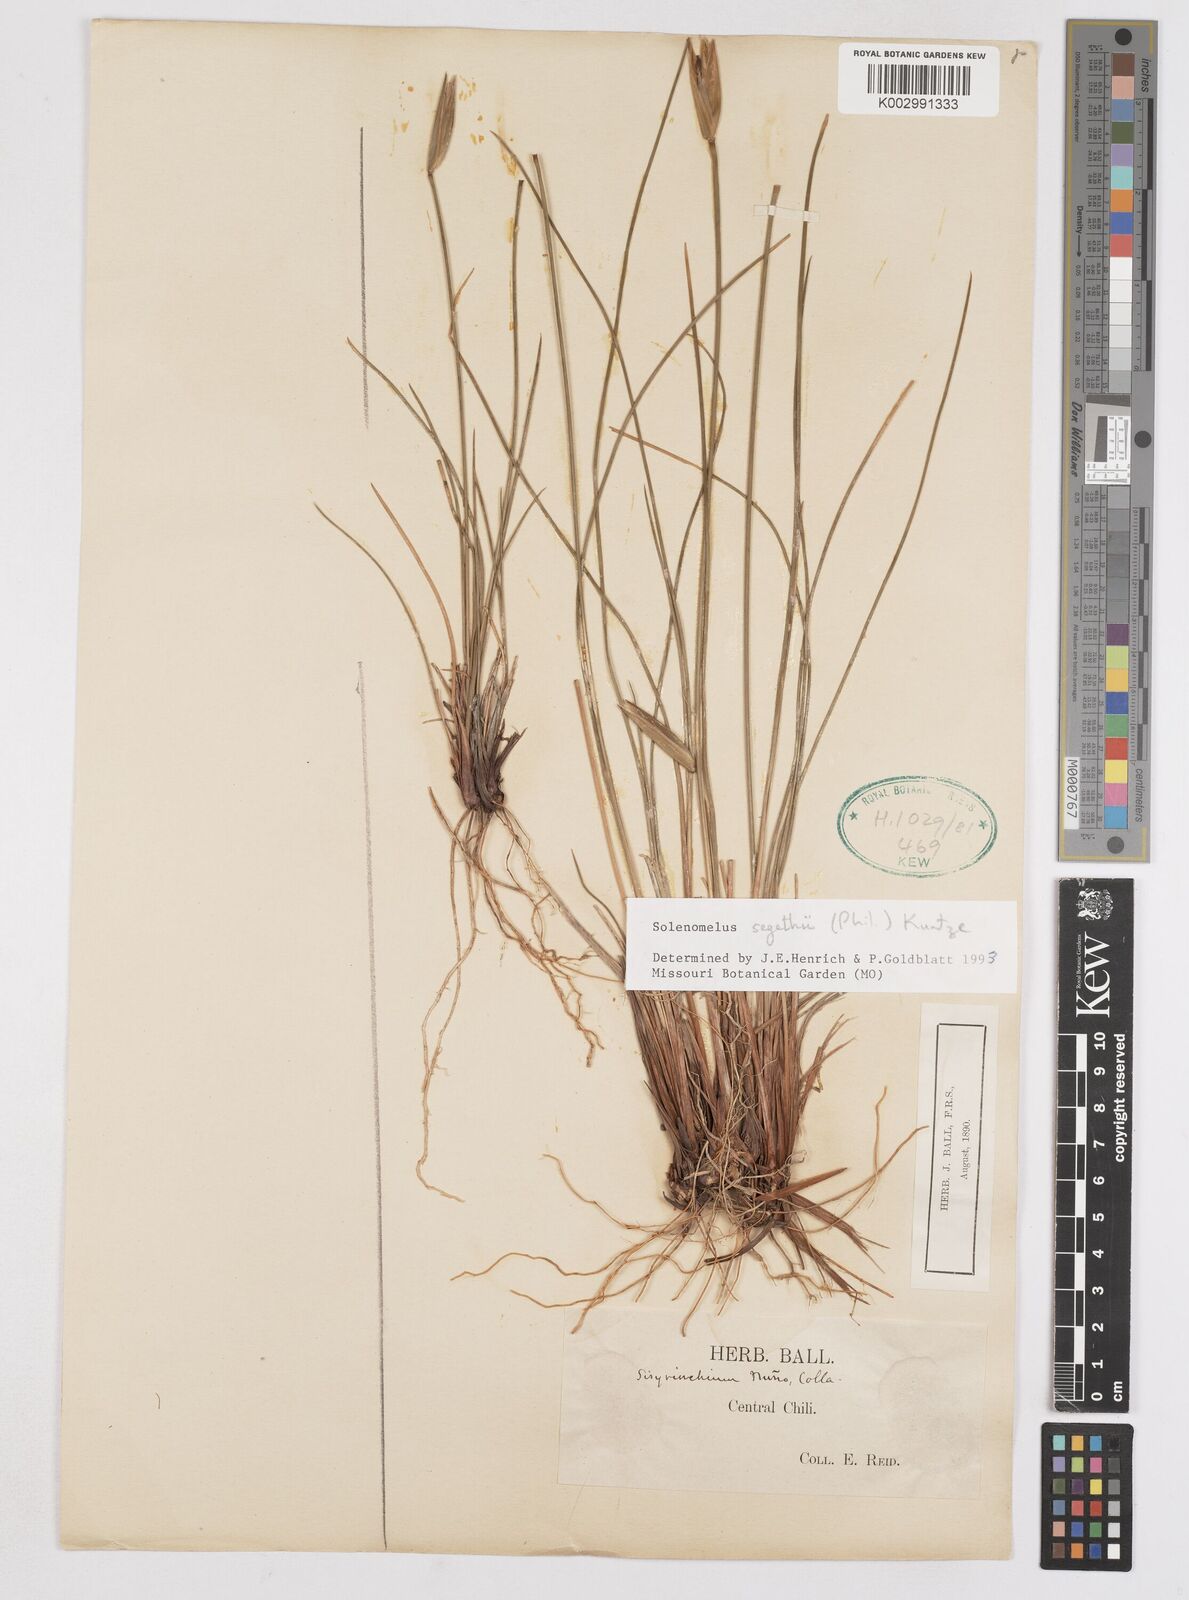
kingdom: Plantae
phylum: Tracheophyta
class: Liliopsida
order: Asparagales
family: Iridaceae
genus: Solenomelus
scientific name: Solenomelus segethi
